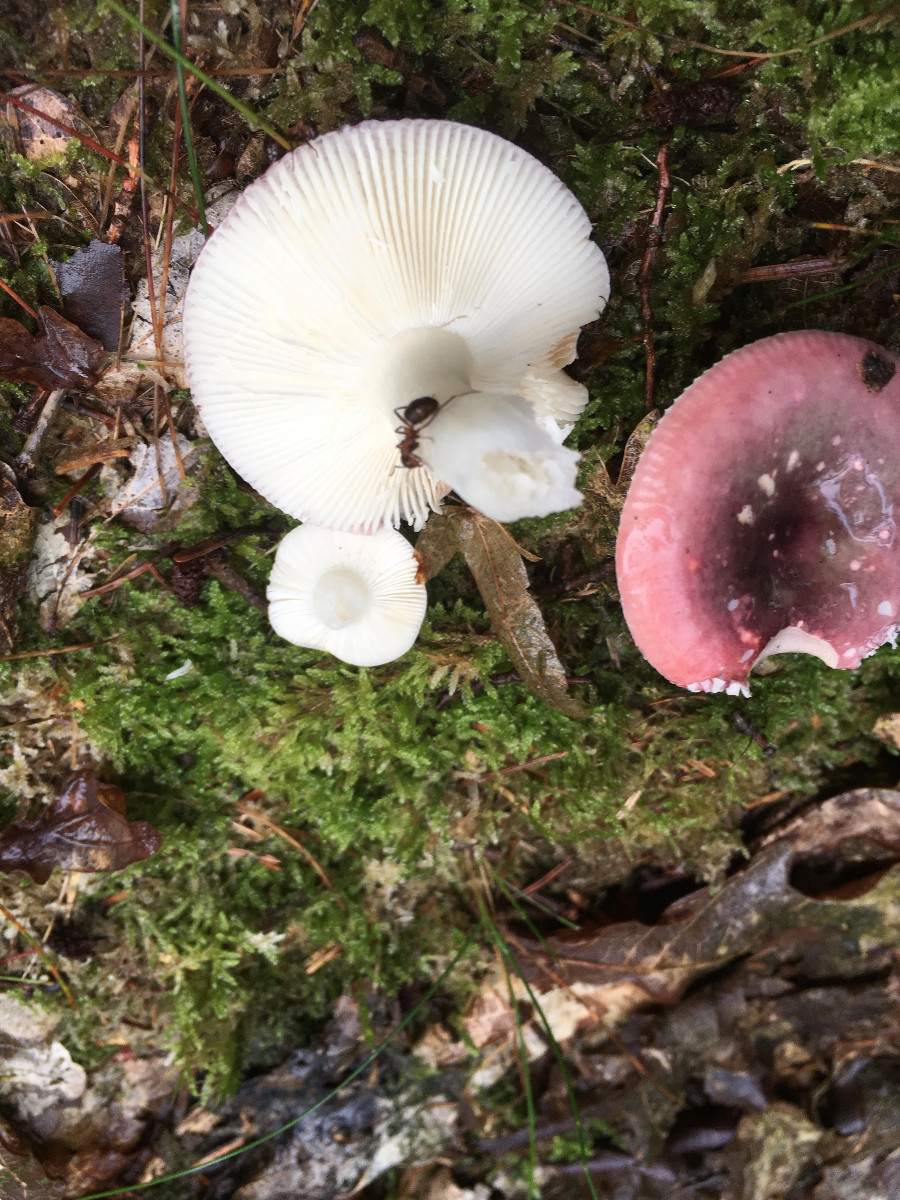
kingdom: Fungi
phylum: Basidiomycota
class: Agaricomycetes
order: Russulales
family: Russulaceae
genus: Russula
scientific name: Russula
